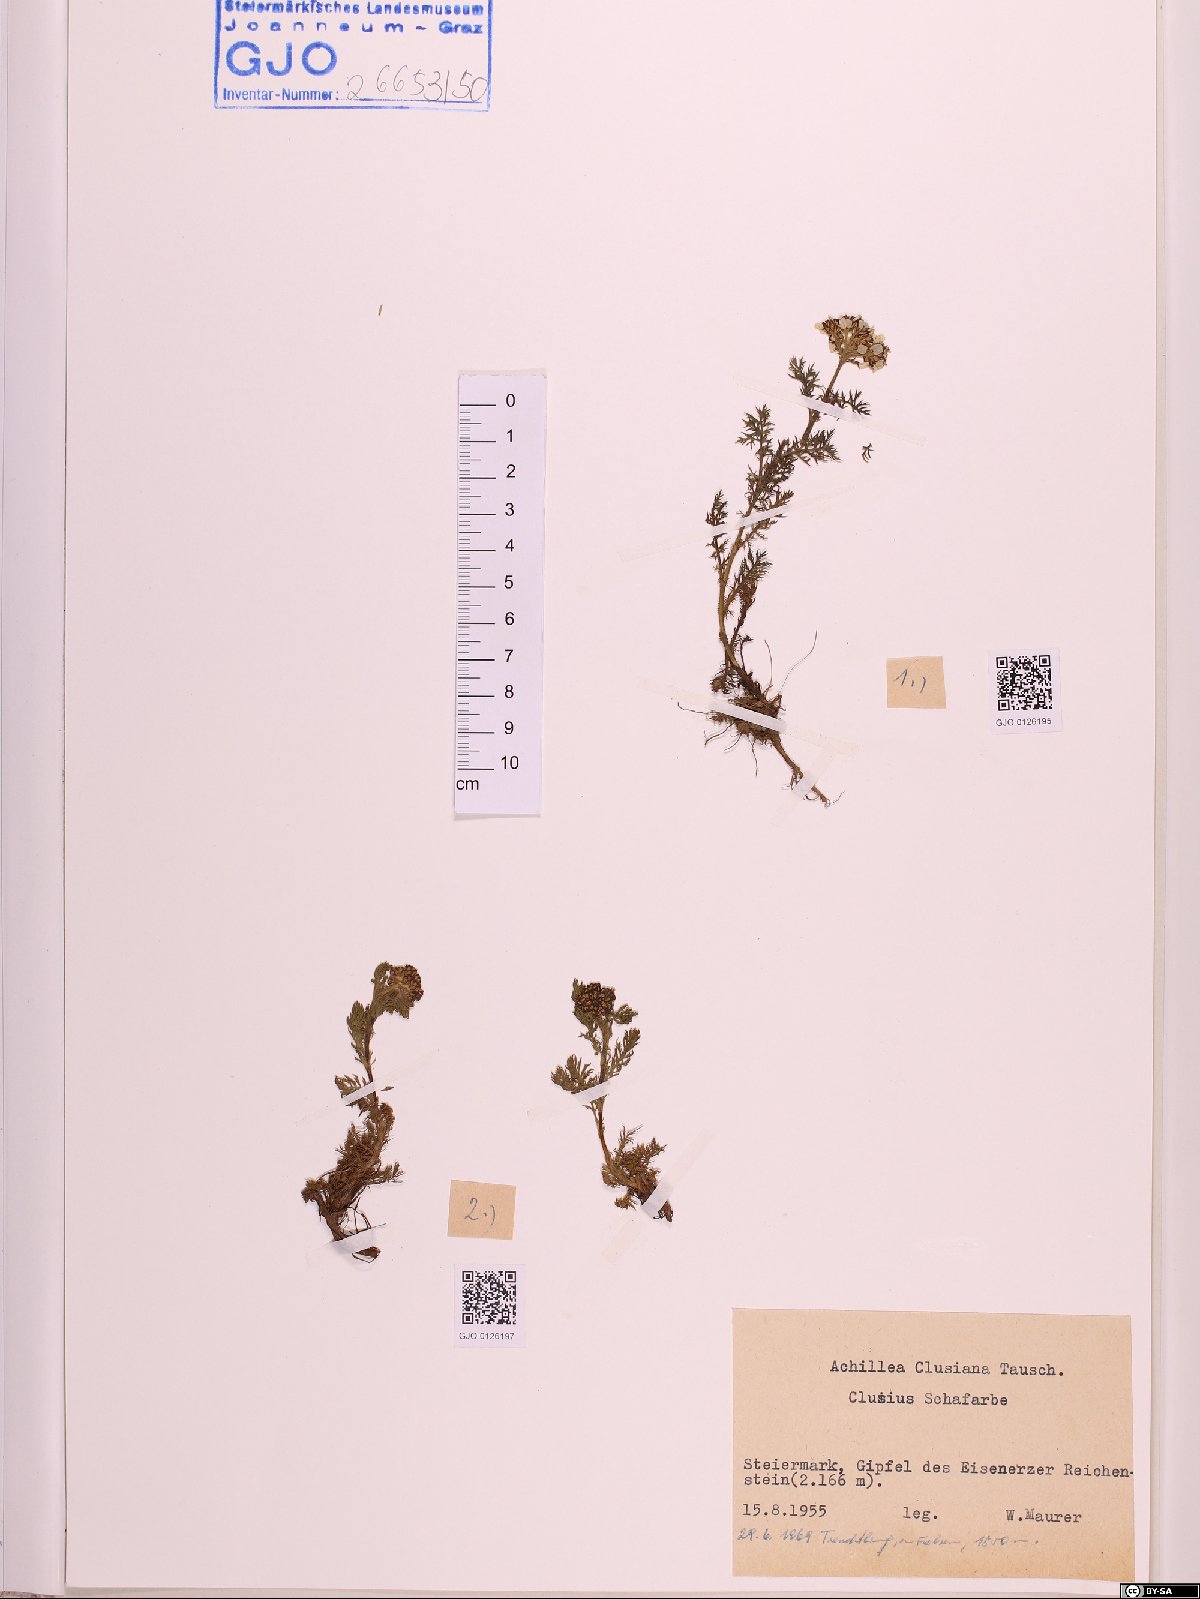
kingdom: Plantae
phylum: Tracheophyta
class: Magnoliopsida
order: Asterales
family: Asteraceae
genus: Achillea
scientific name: Achillea clusiana
